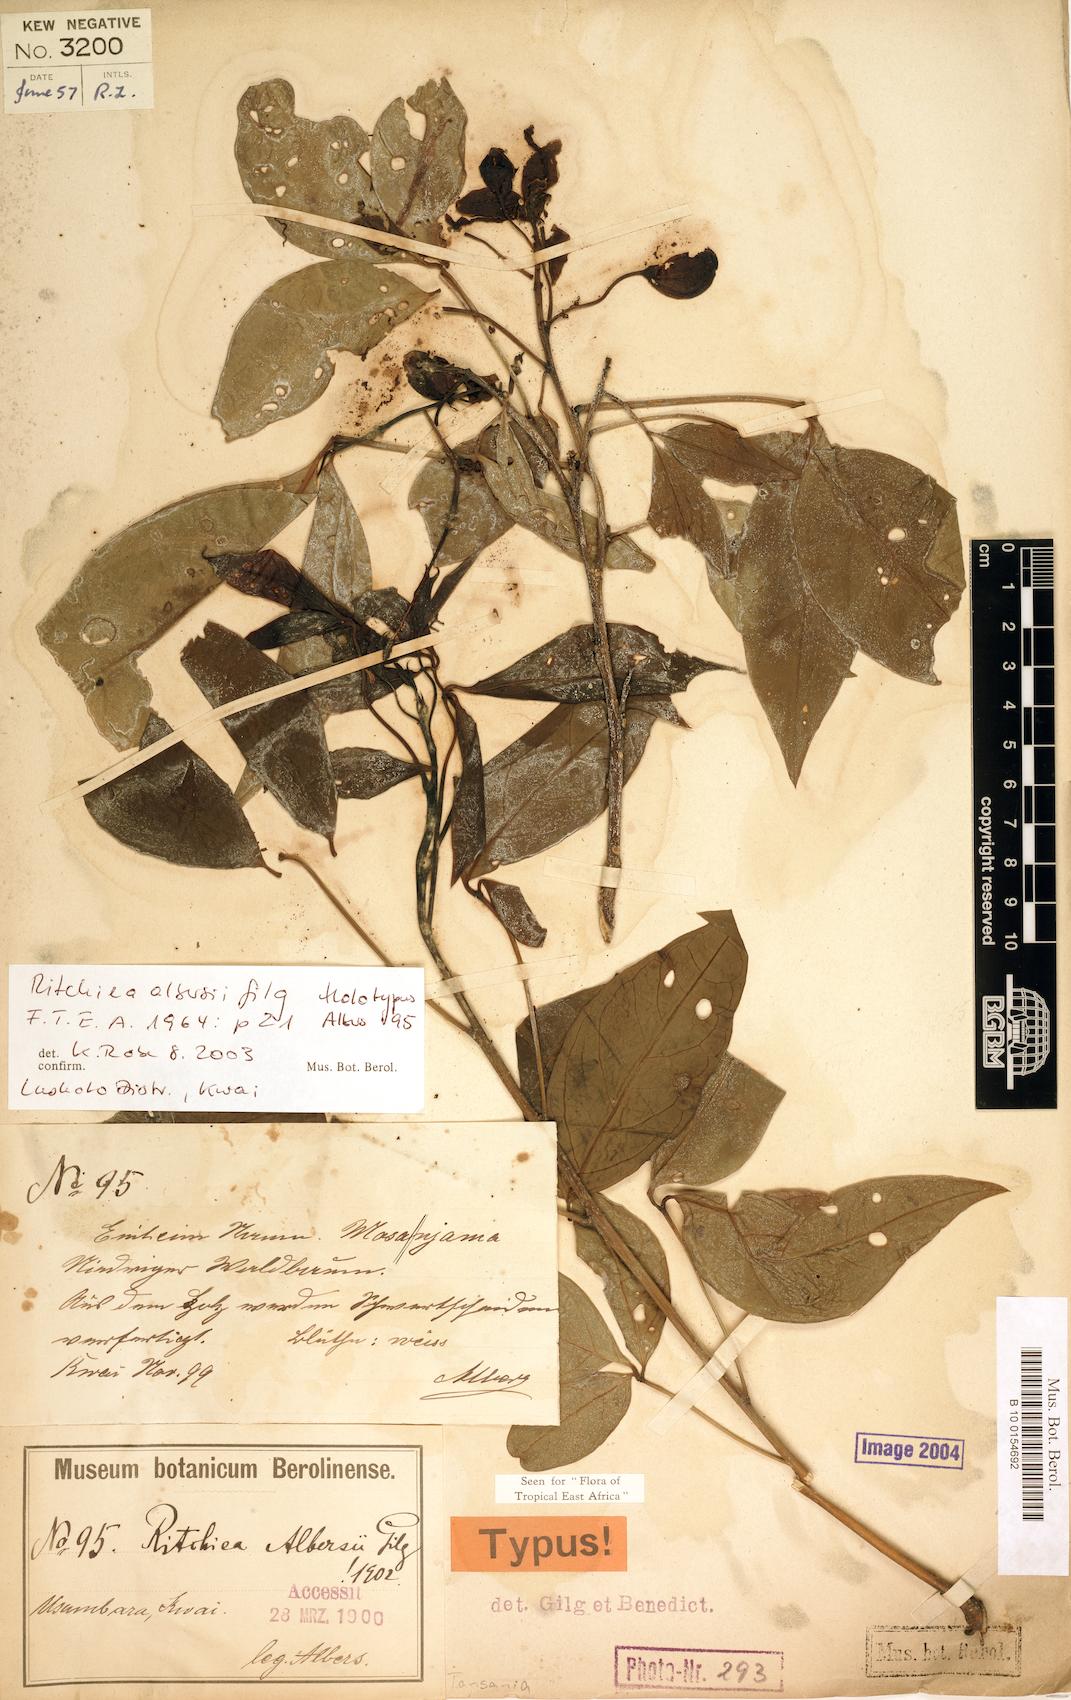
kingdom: Plantae
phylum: Tracheophyta
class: Magnoliopsida
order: Brassicales
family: Capparaceae
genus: Ritchiea
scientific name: Ritchiea albersii
